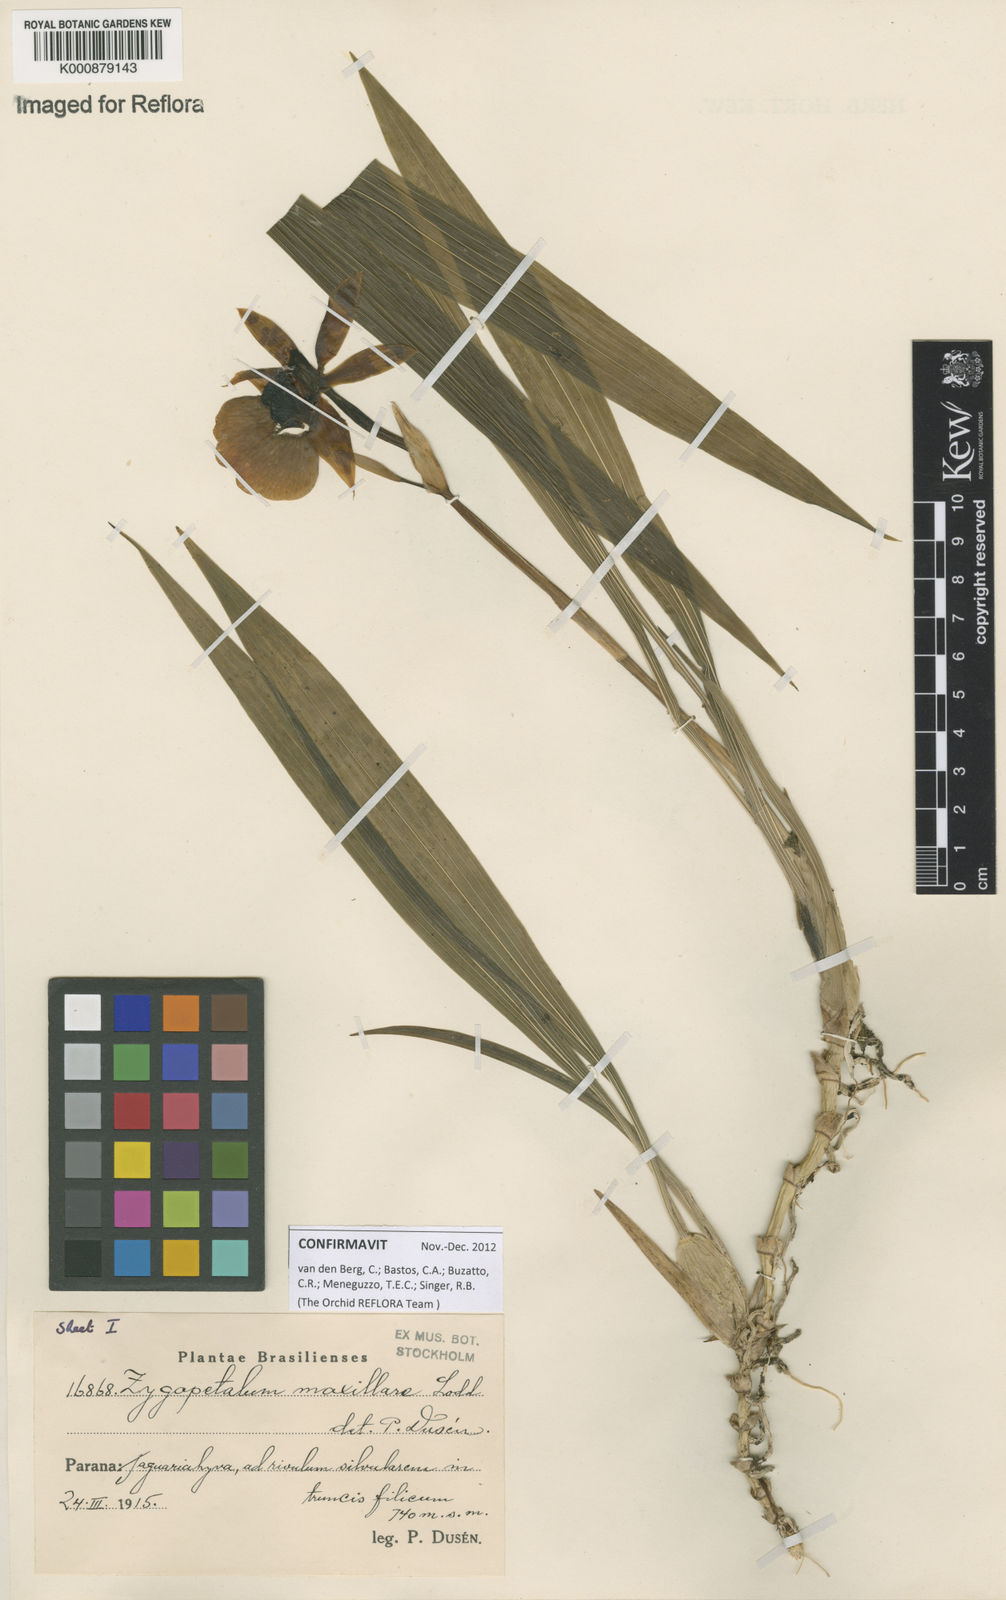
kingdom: Plantae
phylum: Tracheophyta
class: Liliopsida
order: Asparagales
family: Orchidaceae
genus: Zygopetalum
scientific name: Zygopetalum maxillare
